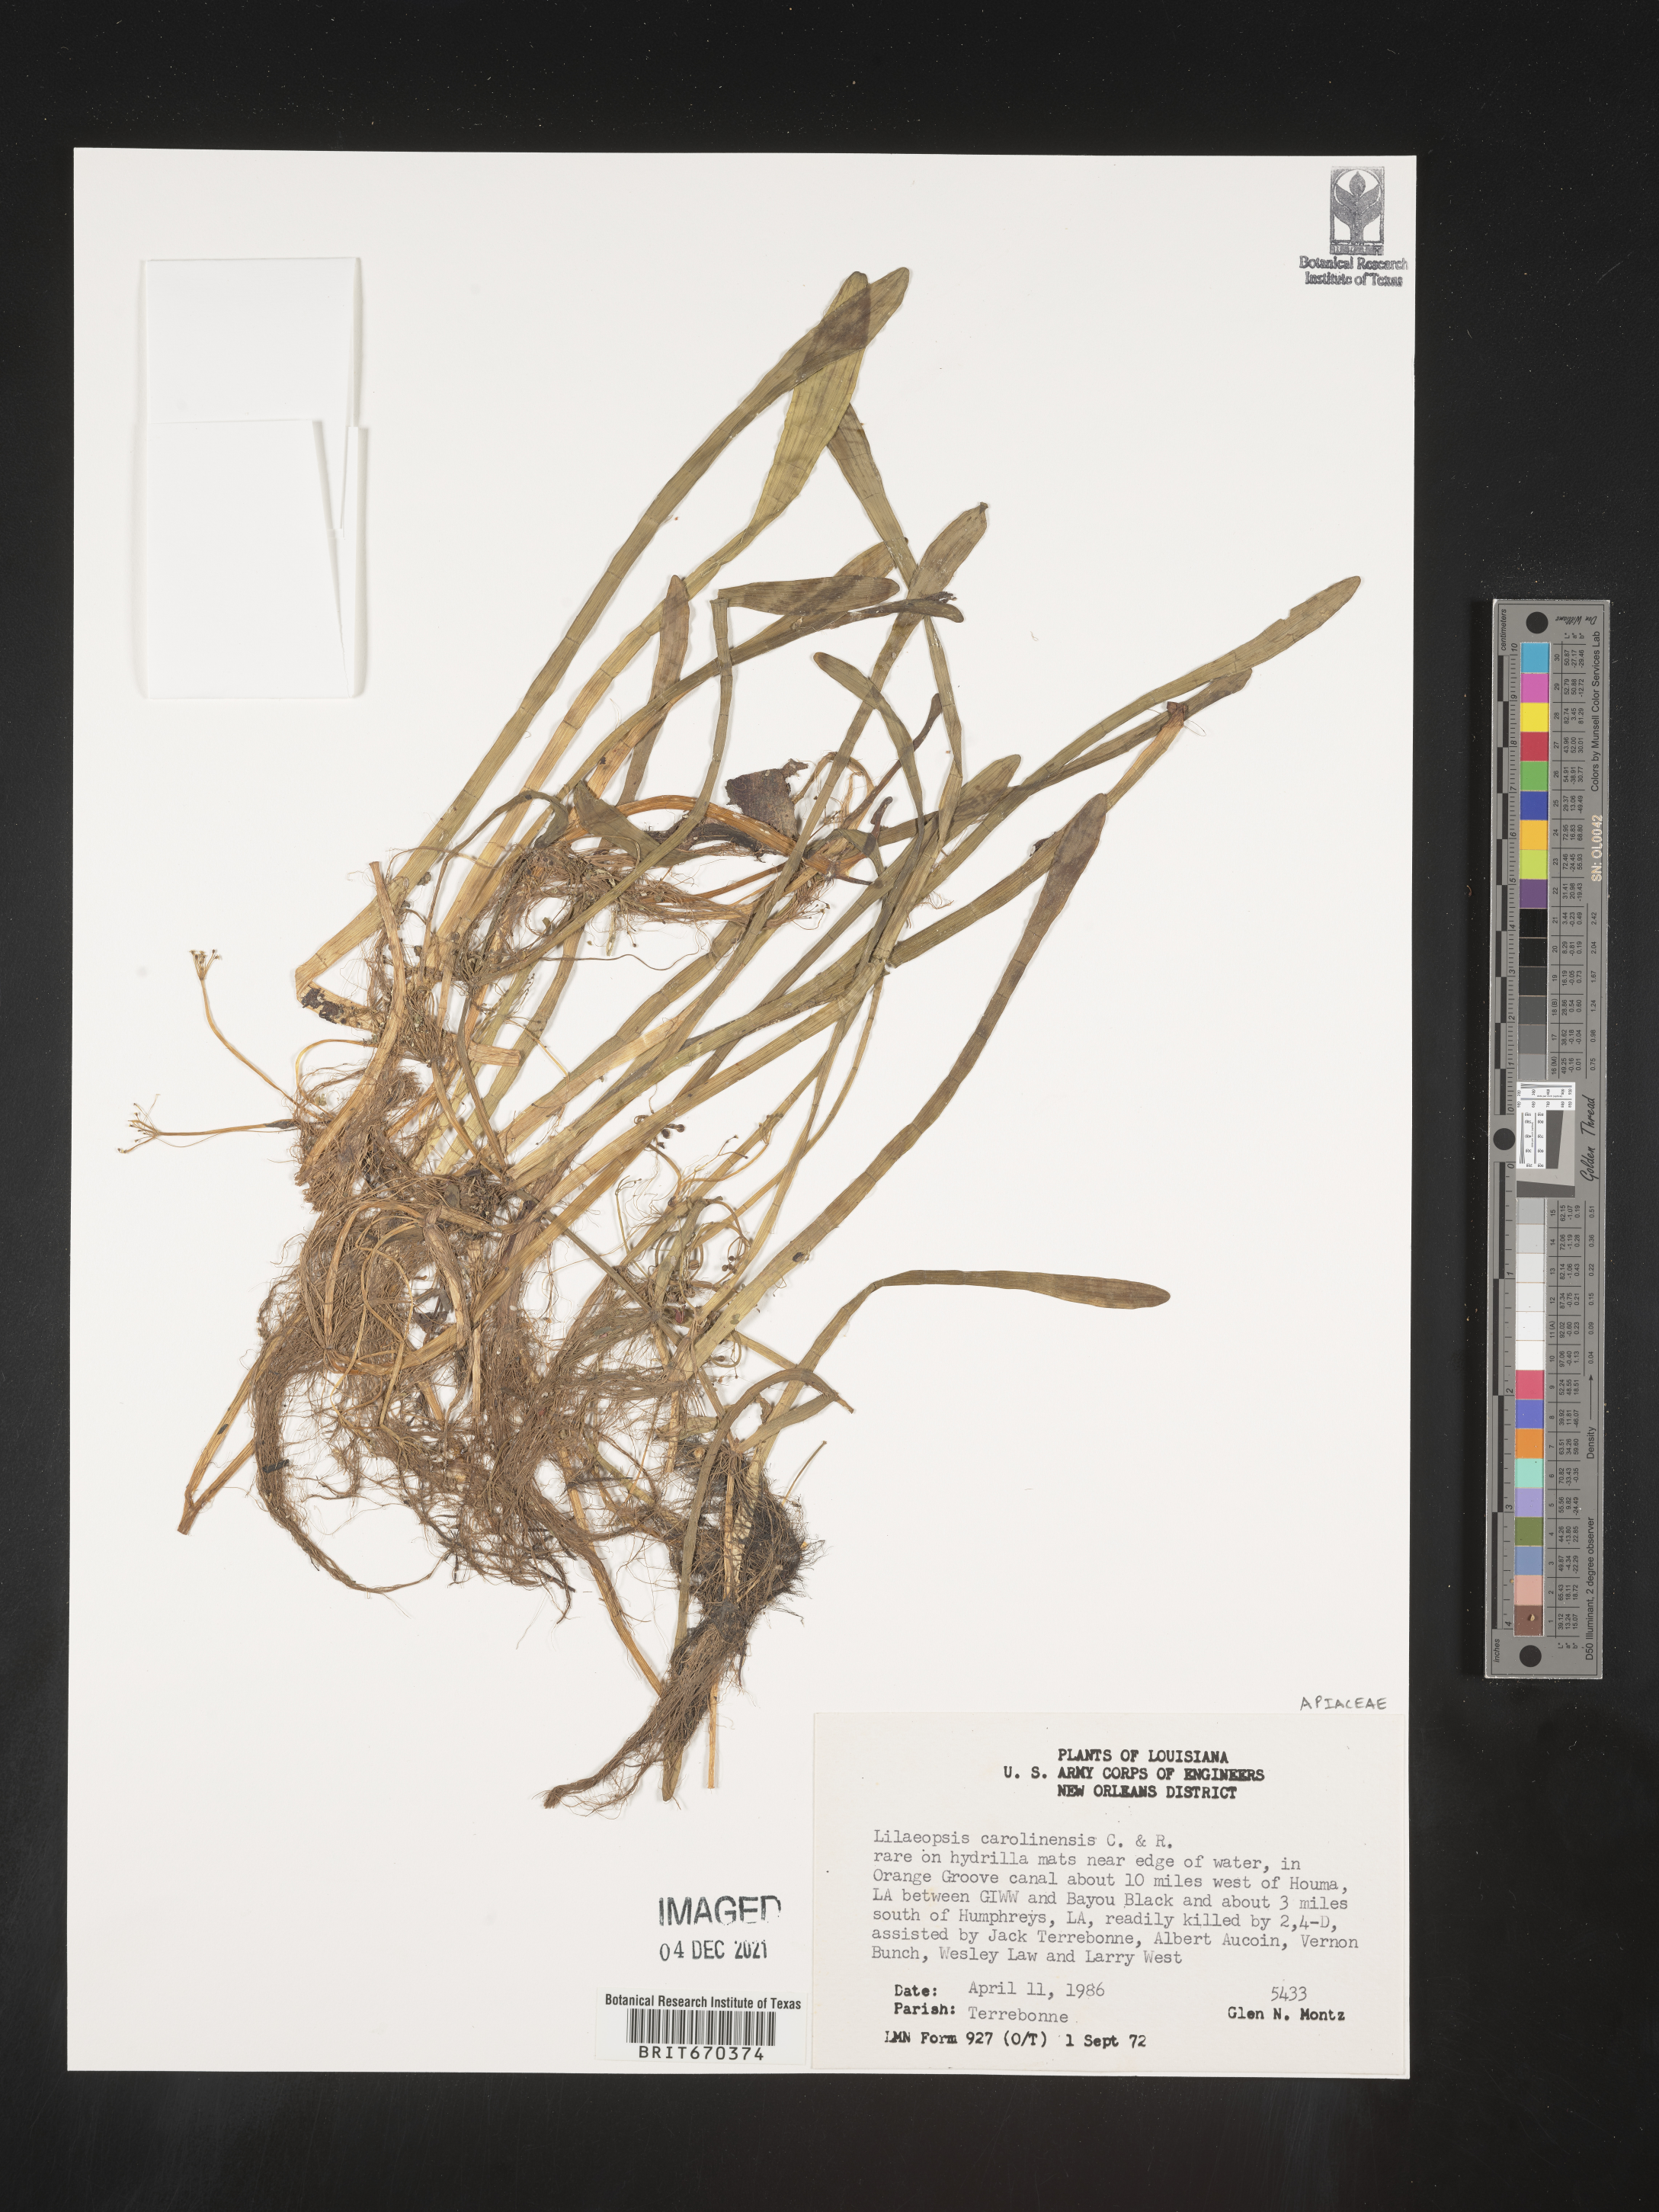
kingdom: Plantae
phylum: Tracheophyta
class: Magnoliopsida
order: Apiales
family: Apiaceae
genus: Lilaeopsis
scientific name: Lilaeopsis
